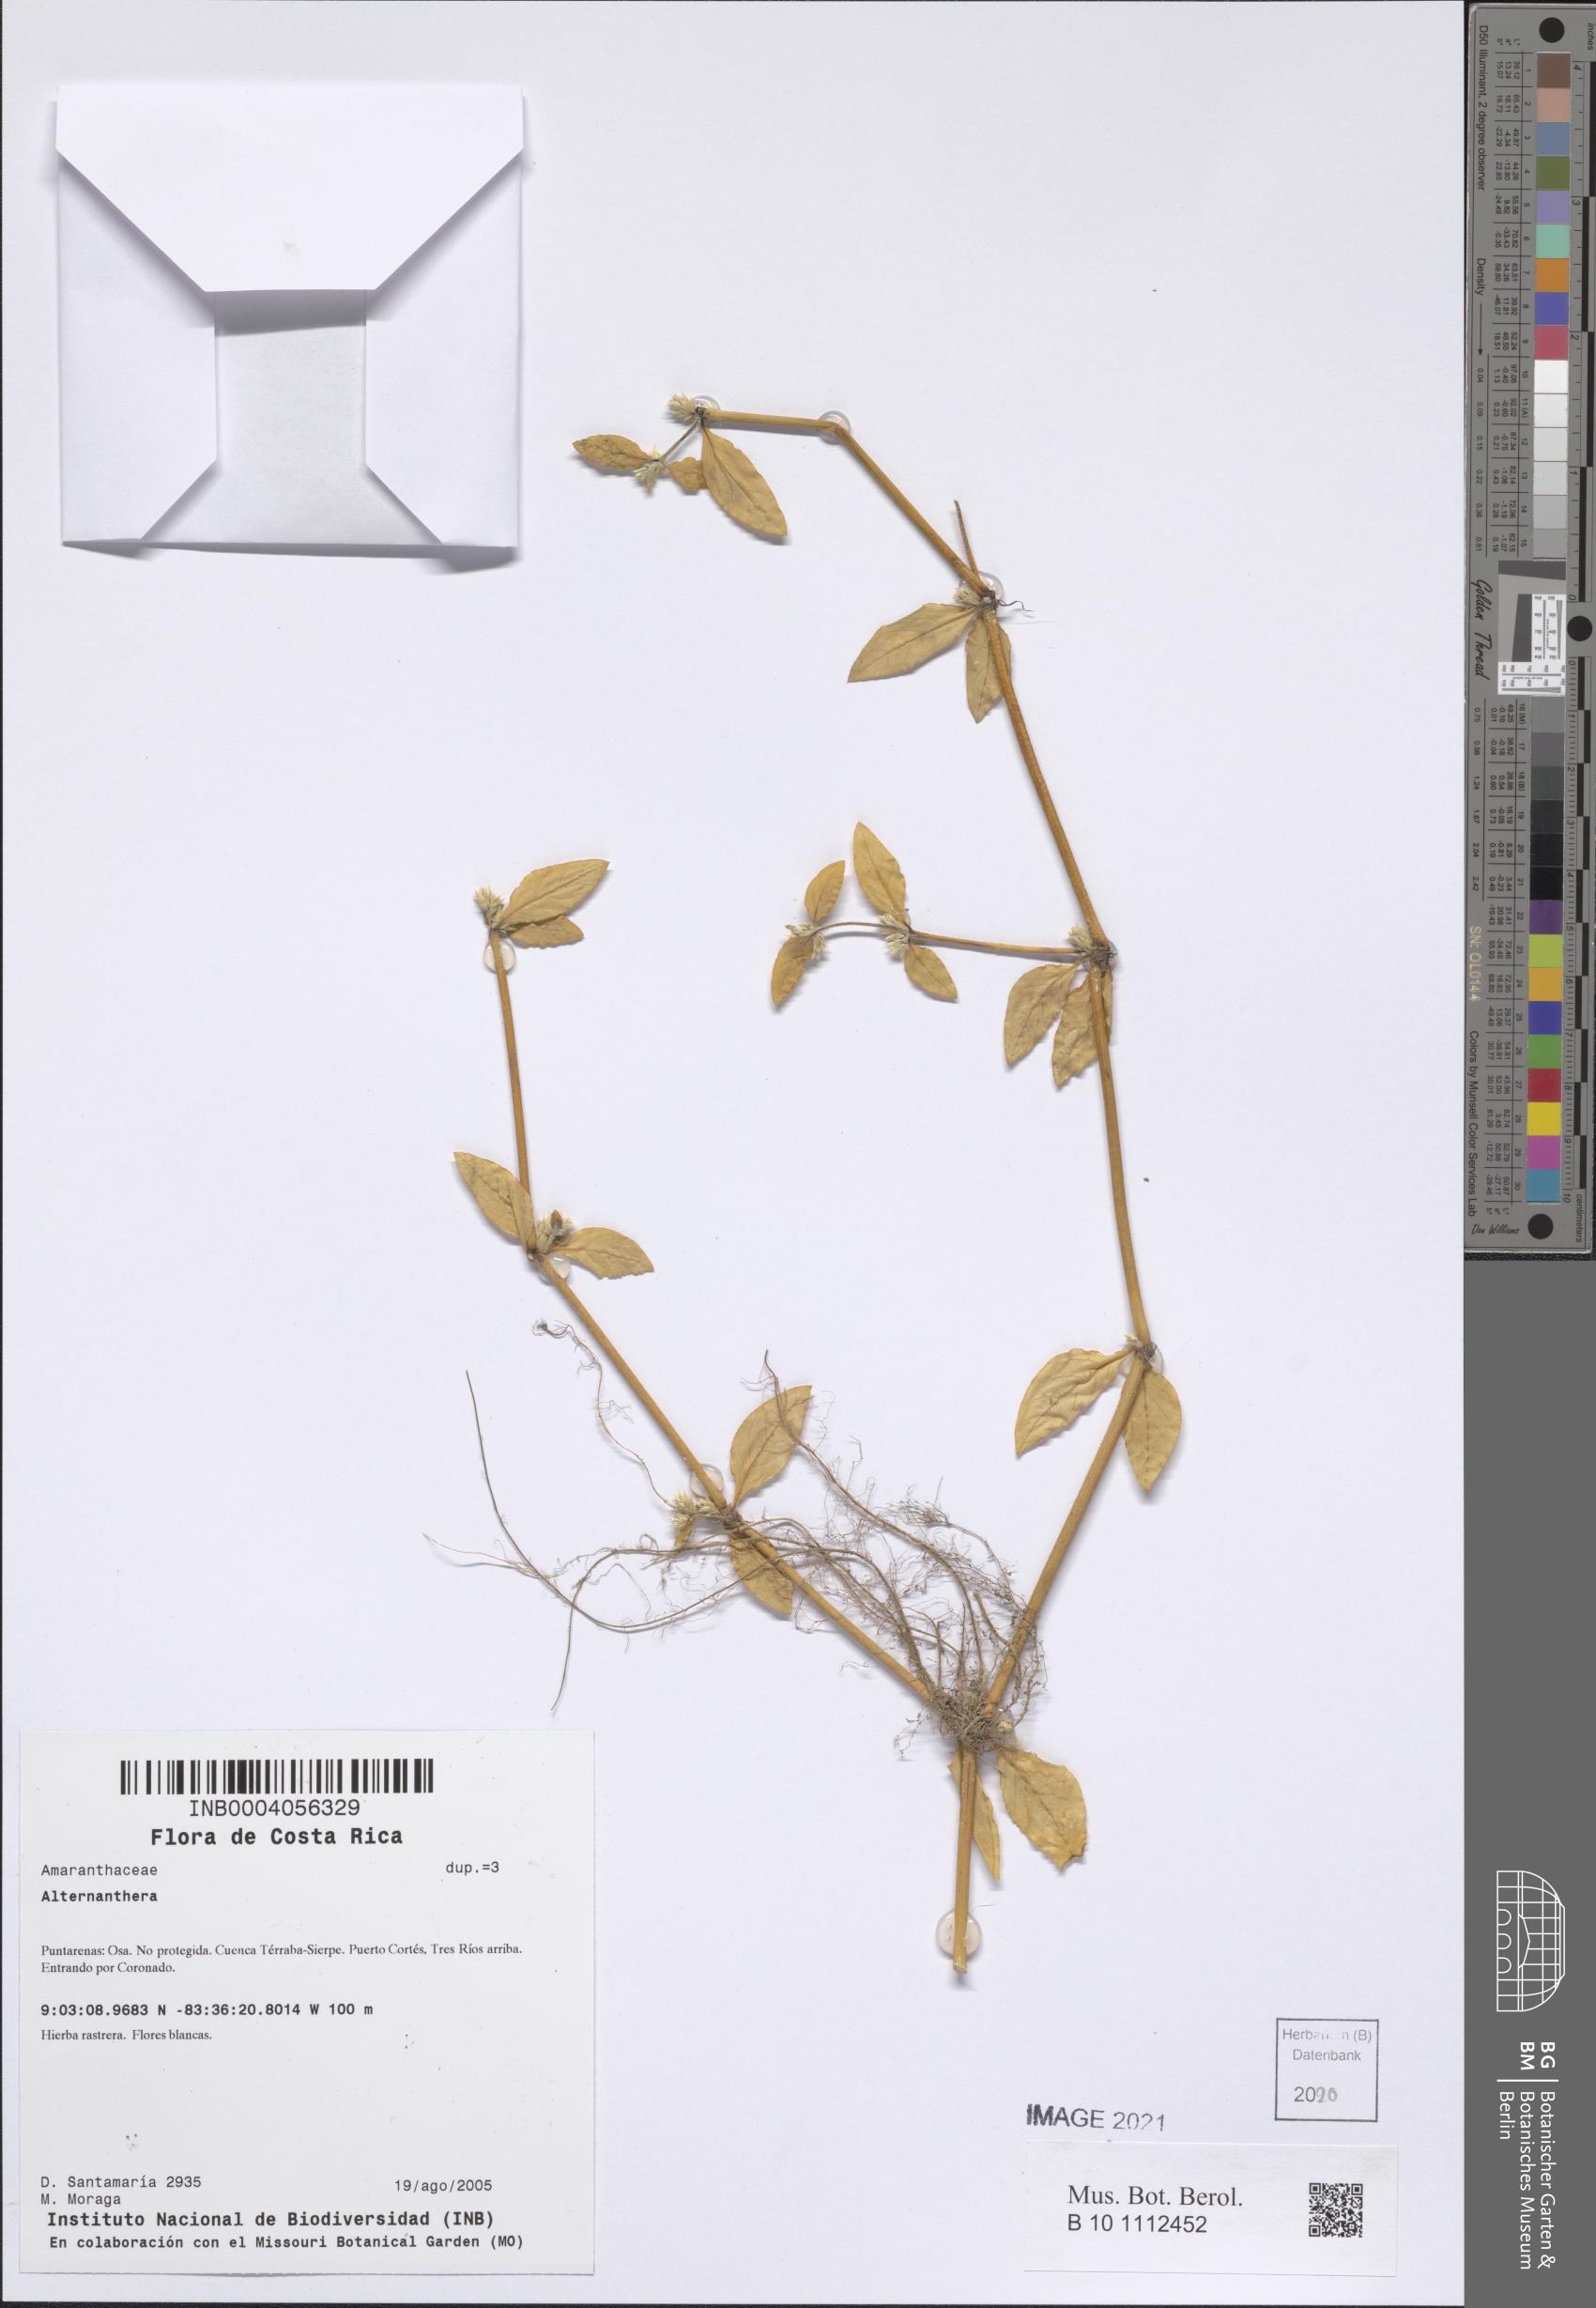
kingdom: Plantae
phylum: Tracheophyta
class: Magnoliopsida
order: Caryophyllales
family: Amaranthaceae
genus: Alternanthera
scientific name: Alternanthera
